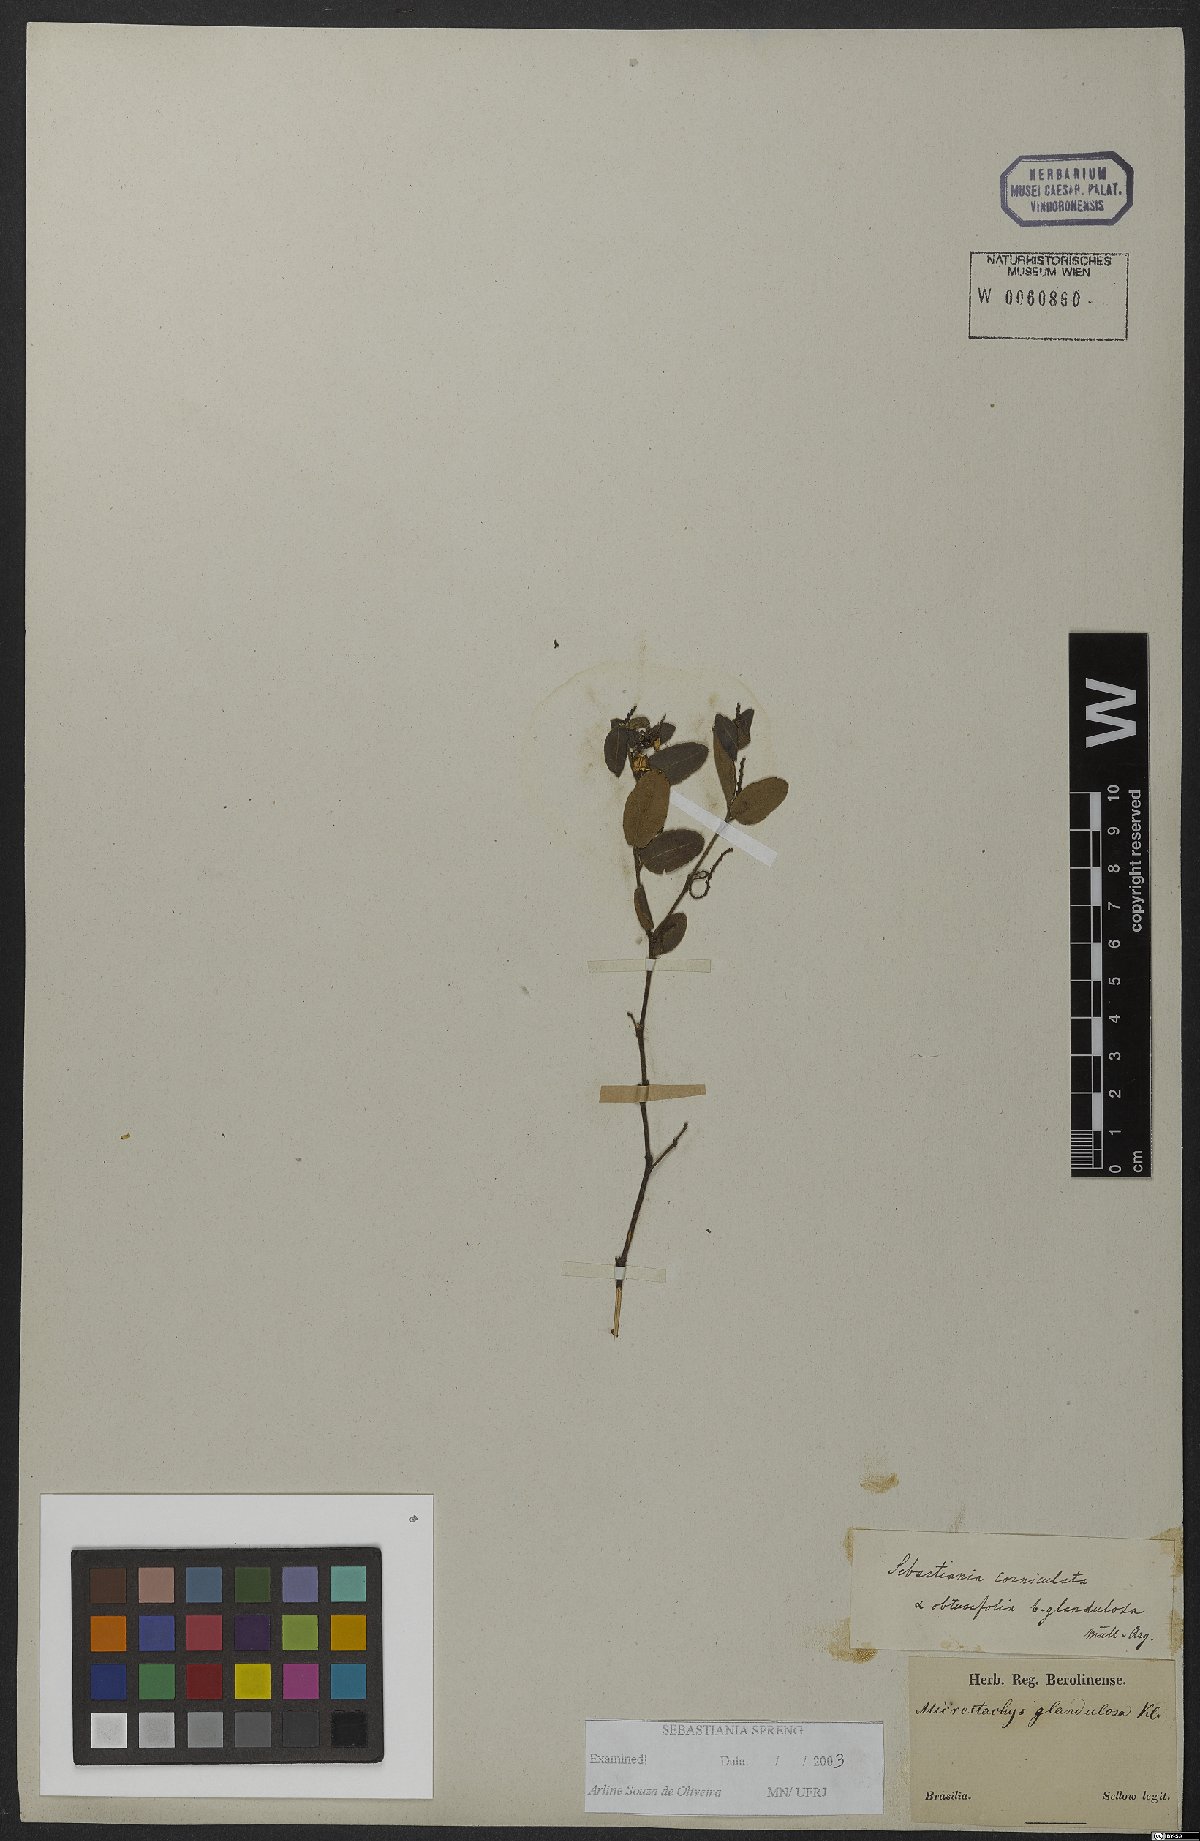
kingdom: Plantae
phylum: Tracheophyta
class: Magnoliopsida
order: Malpighiales
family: Euphorbiaceae
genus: Microstachys
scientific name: Microstachys corniculata
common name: Hato tejas
